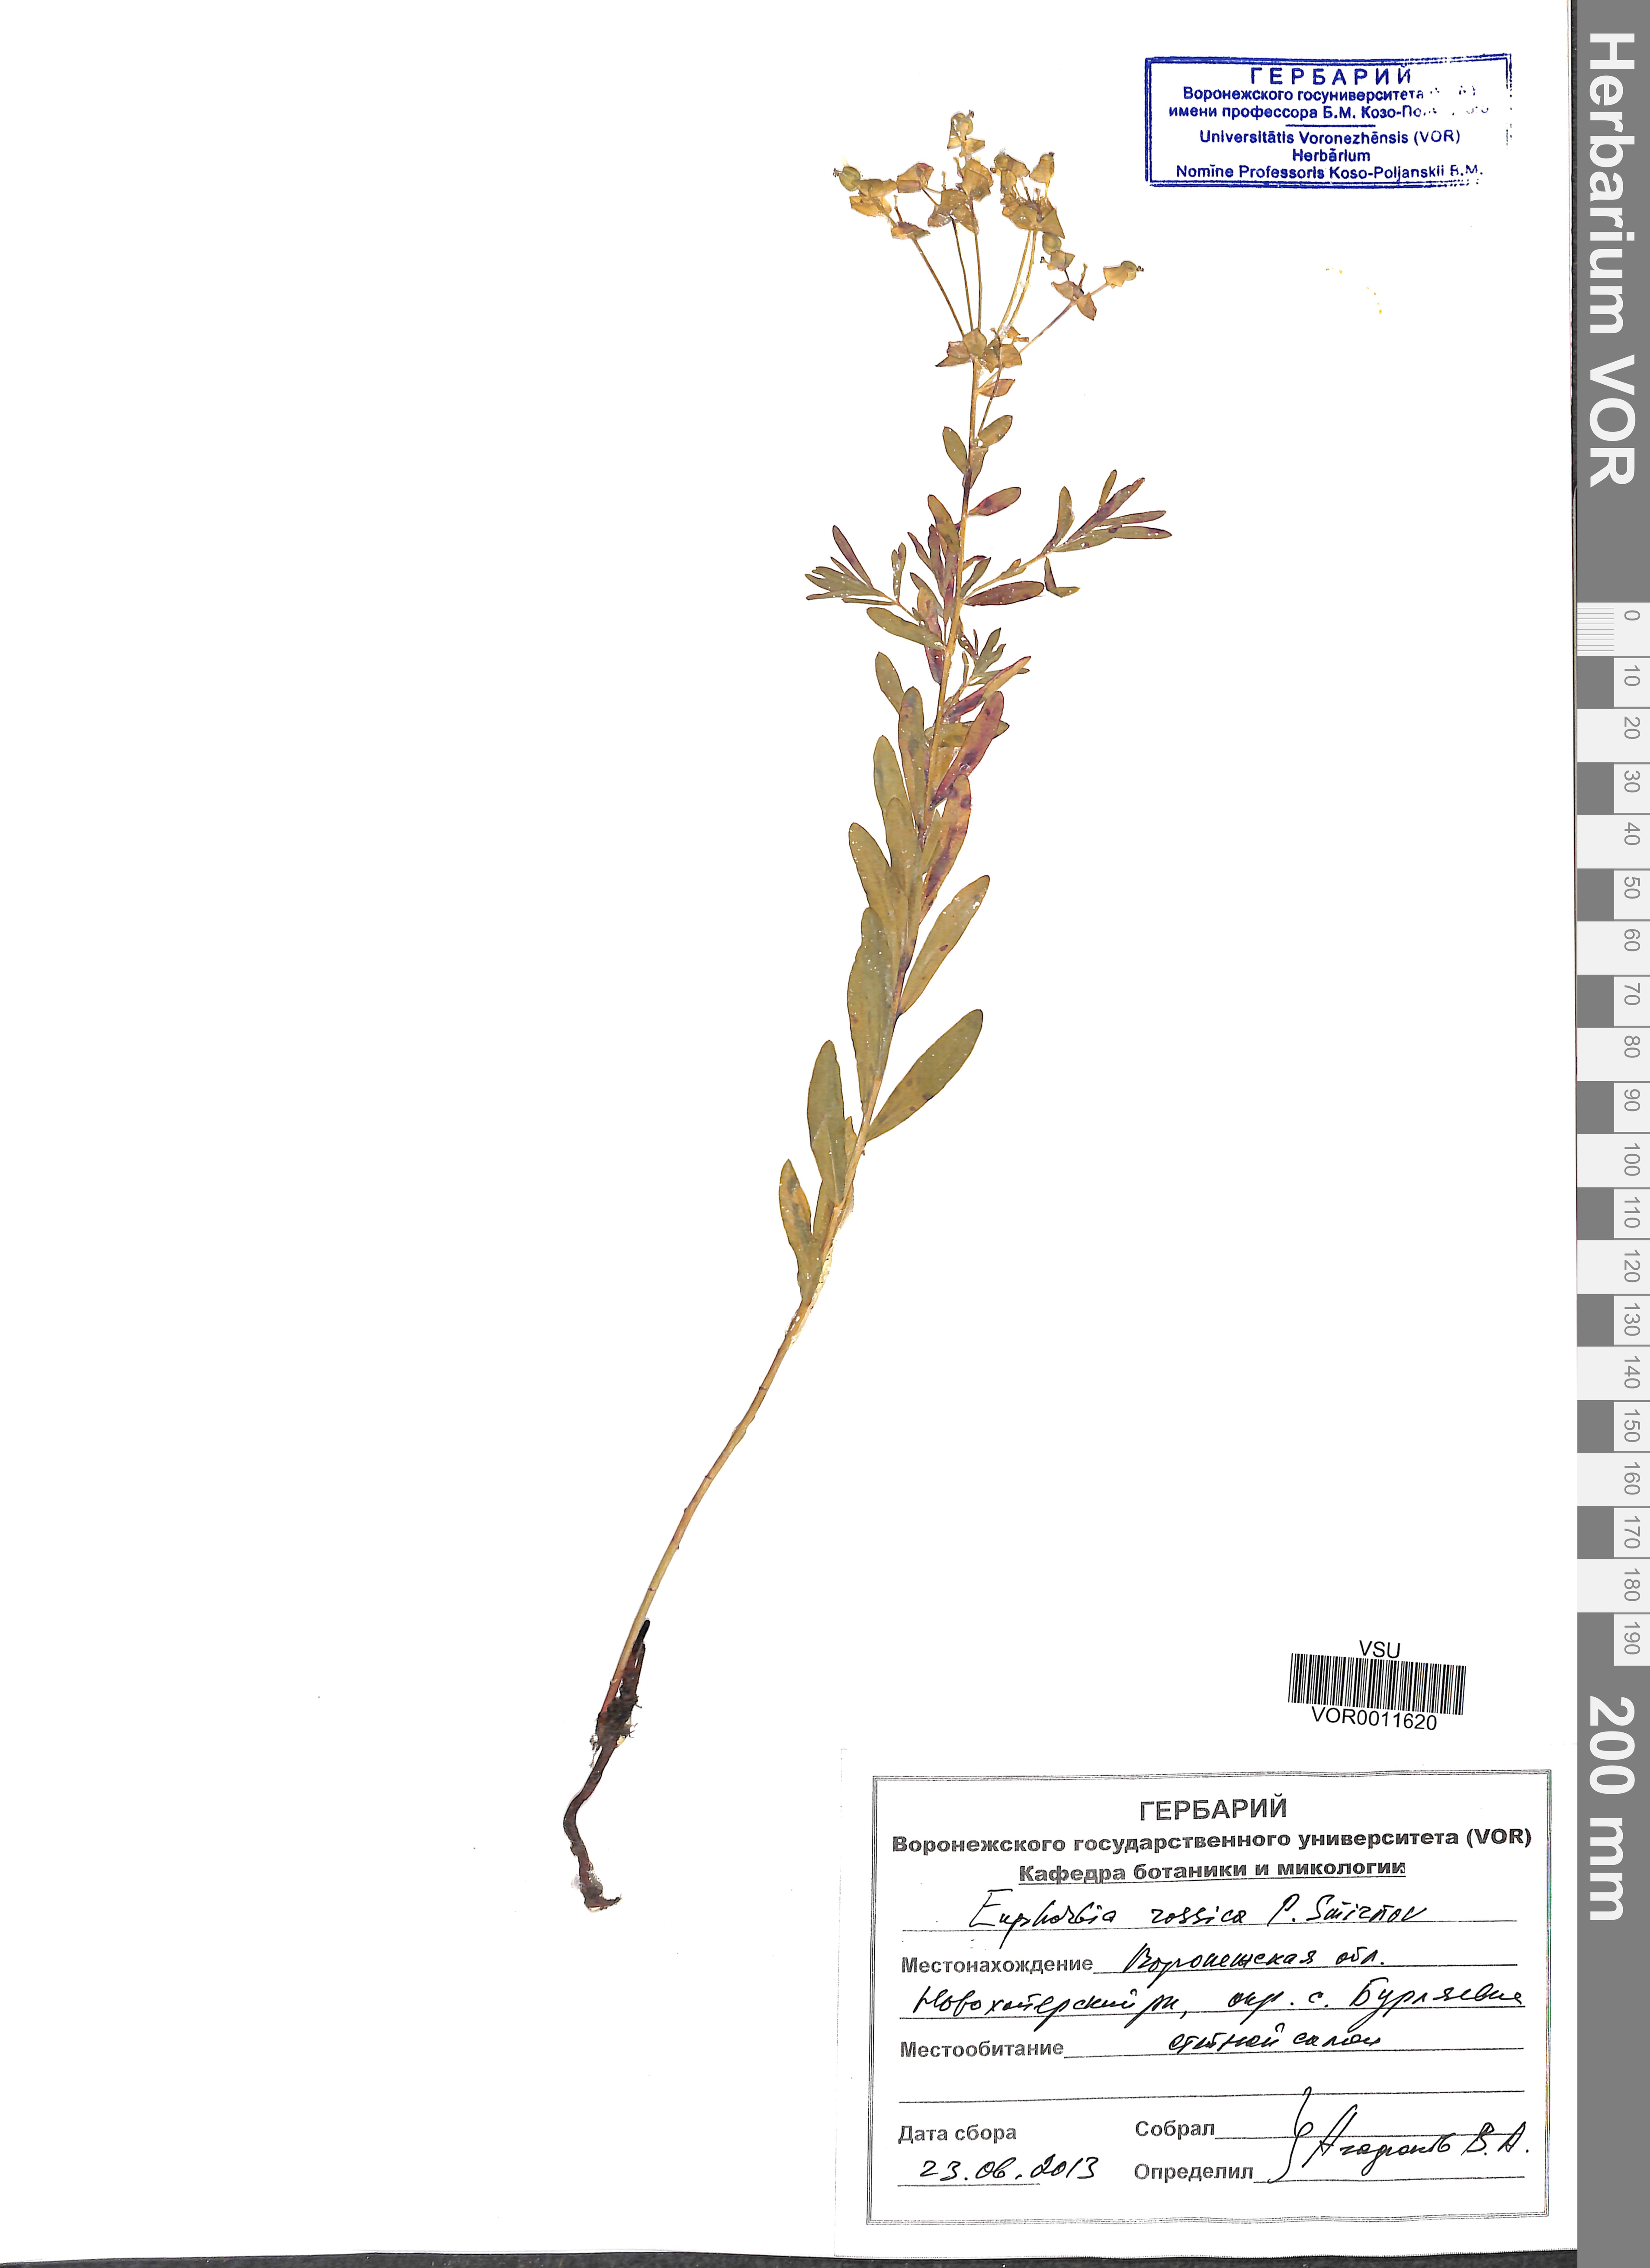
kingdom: Plantae
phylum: Tracheophyta
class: Magnoliopsida
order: Malpighiales
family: Euphorbiaceae
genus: Euphorbia
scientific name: Euphorbia esula
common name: Leafy spurge
